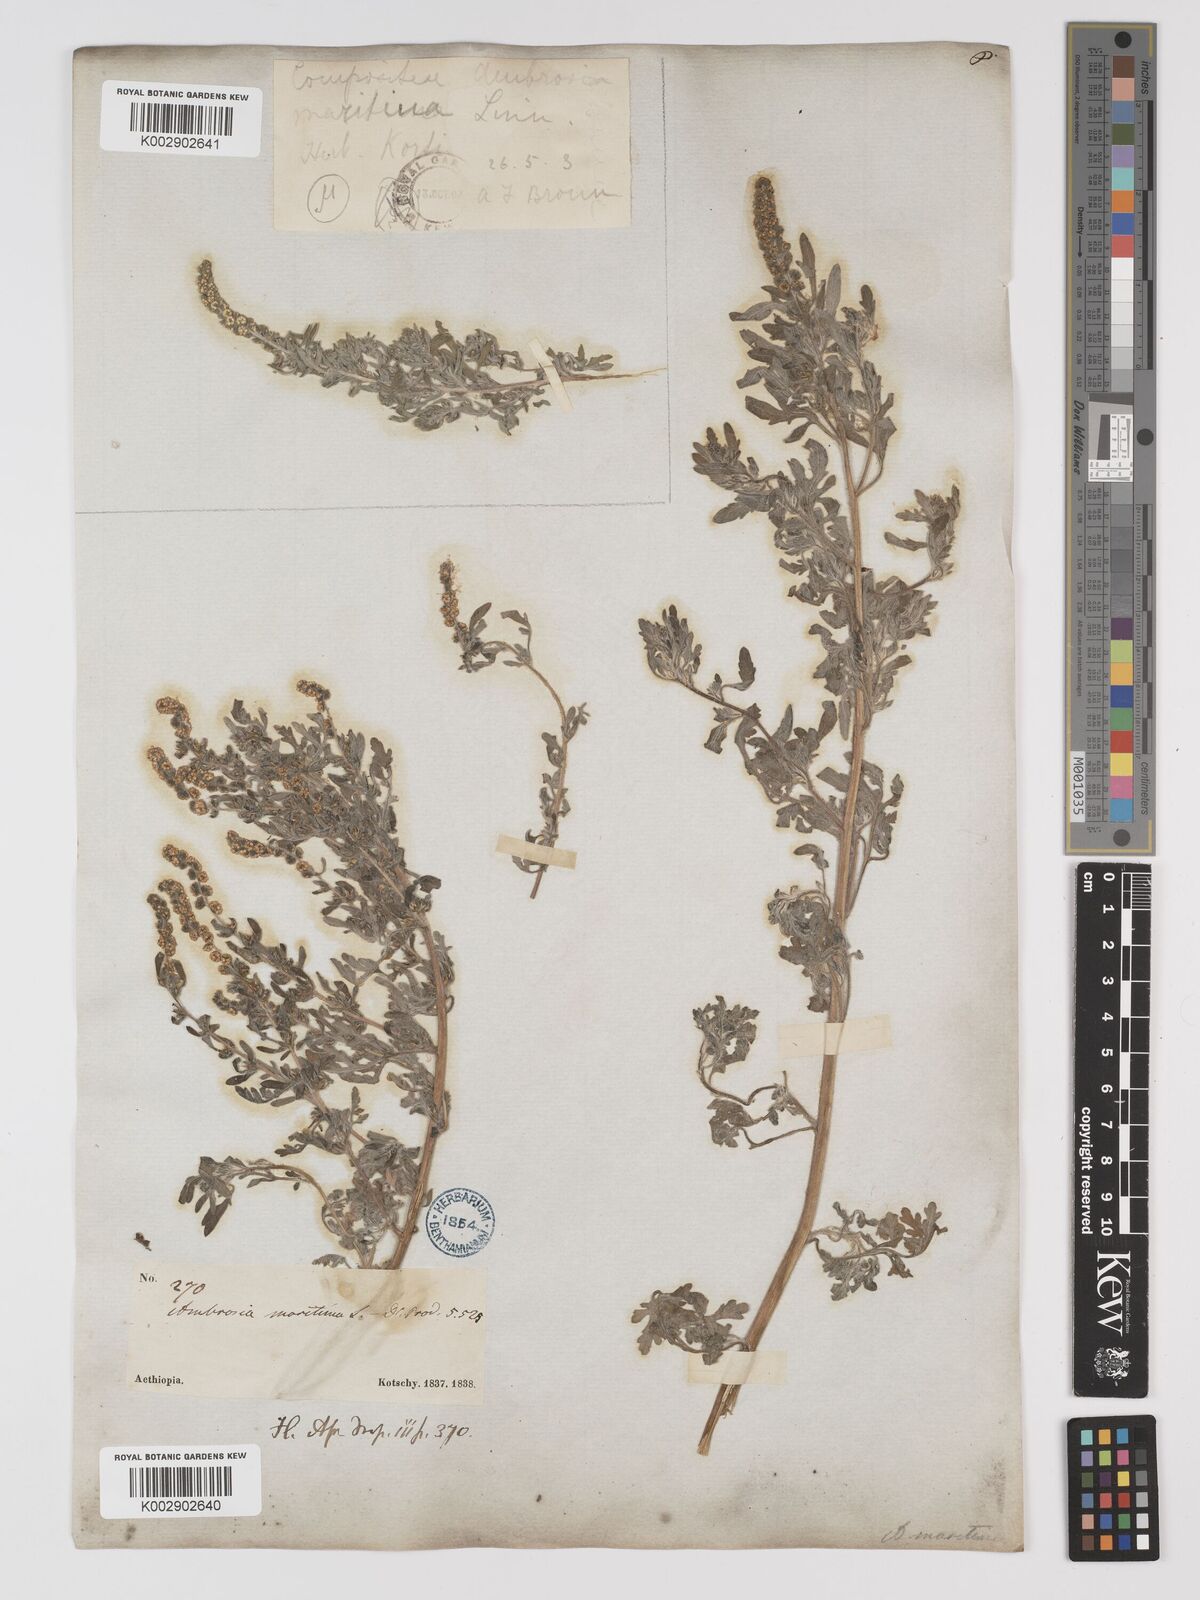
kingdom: Plantae
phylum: Tracheophyta
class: Magnoliopsida
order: Asterales
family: Asteraceae
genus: Ambrosia
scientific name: Ambrosia maritima
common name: Sea ambrosia
